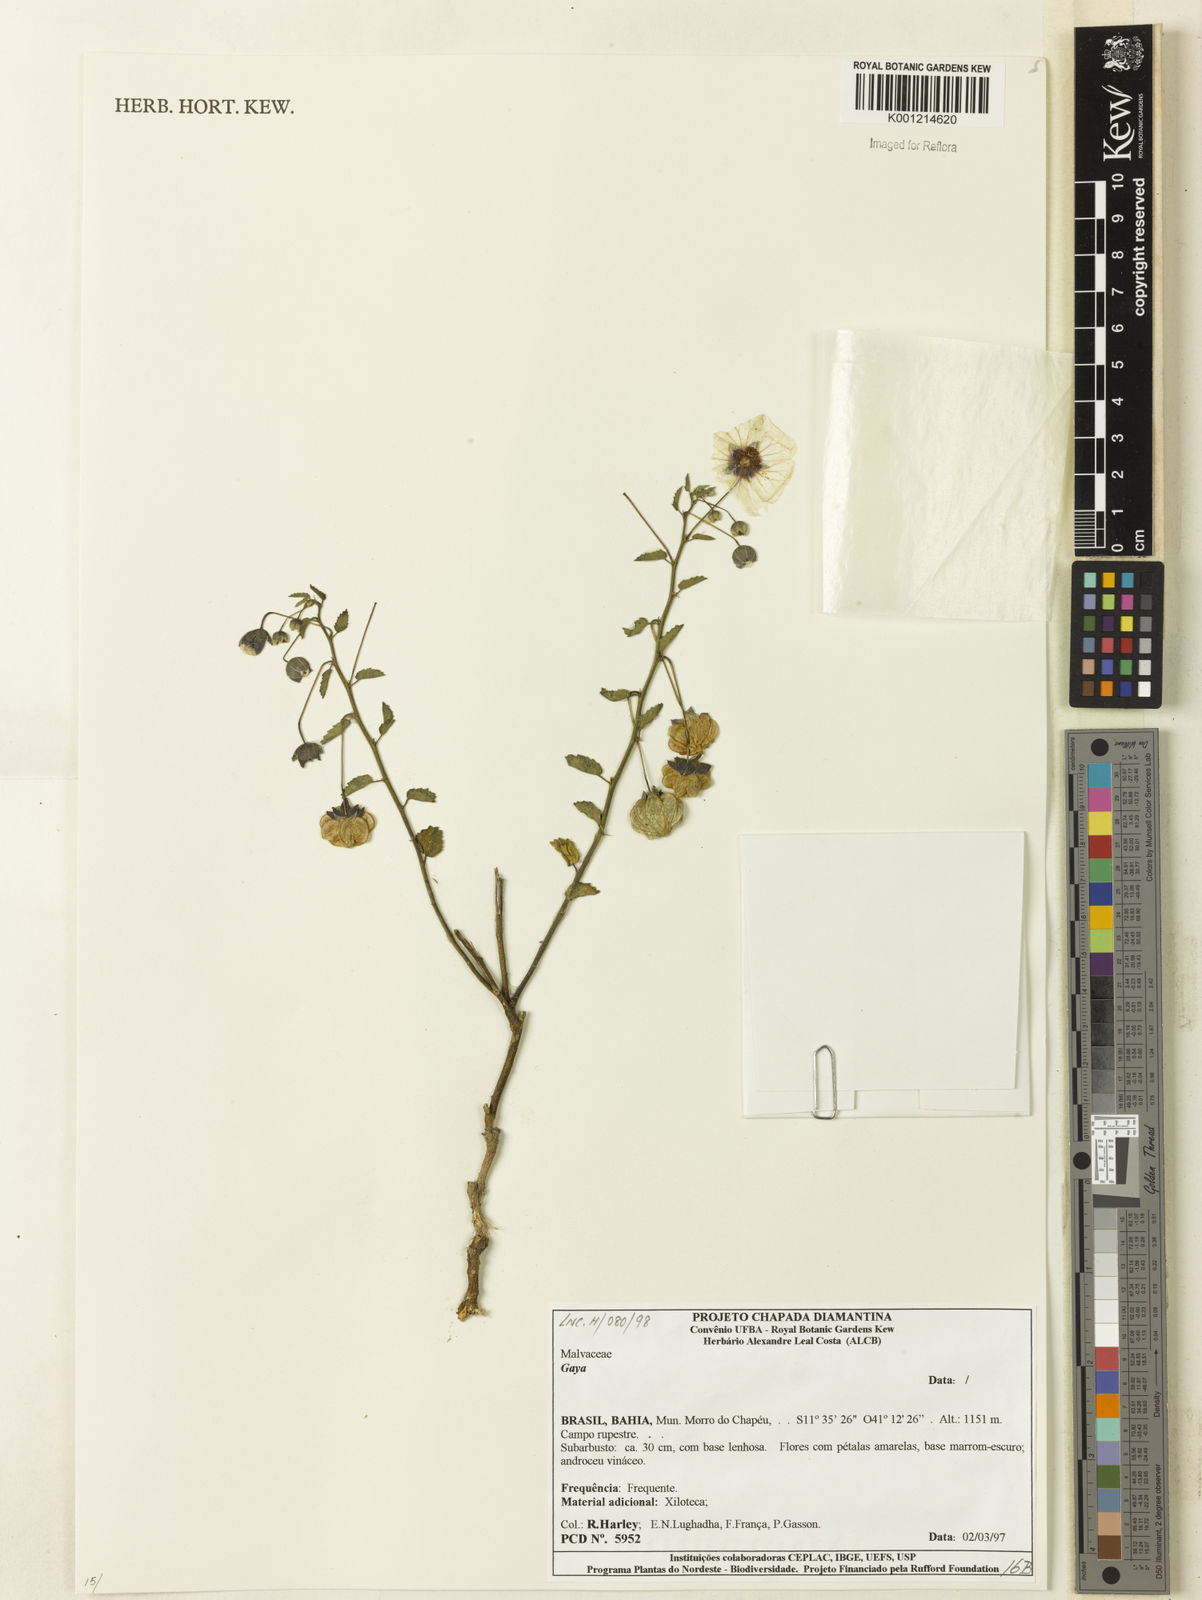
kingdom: Plantae
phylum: Tracheophyta
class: Magnoliopsida
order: Malvales
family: Malvaceae
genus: Gaya
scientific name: Gaya
